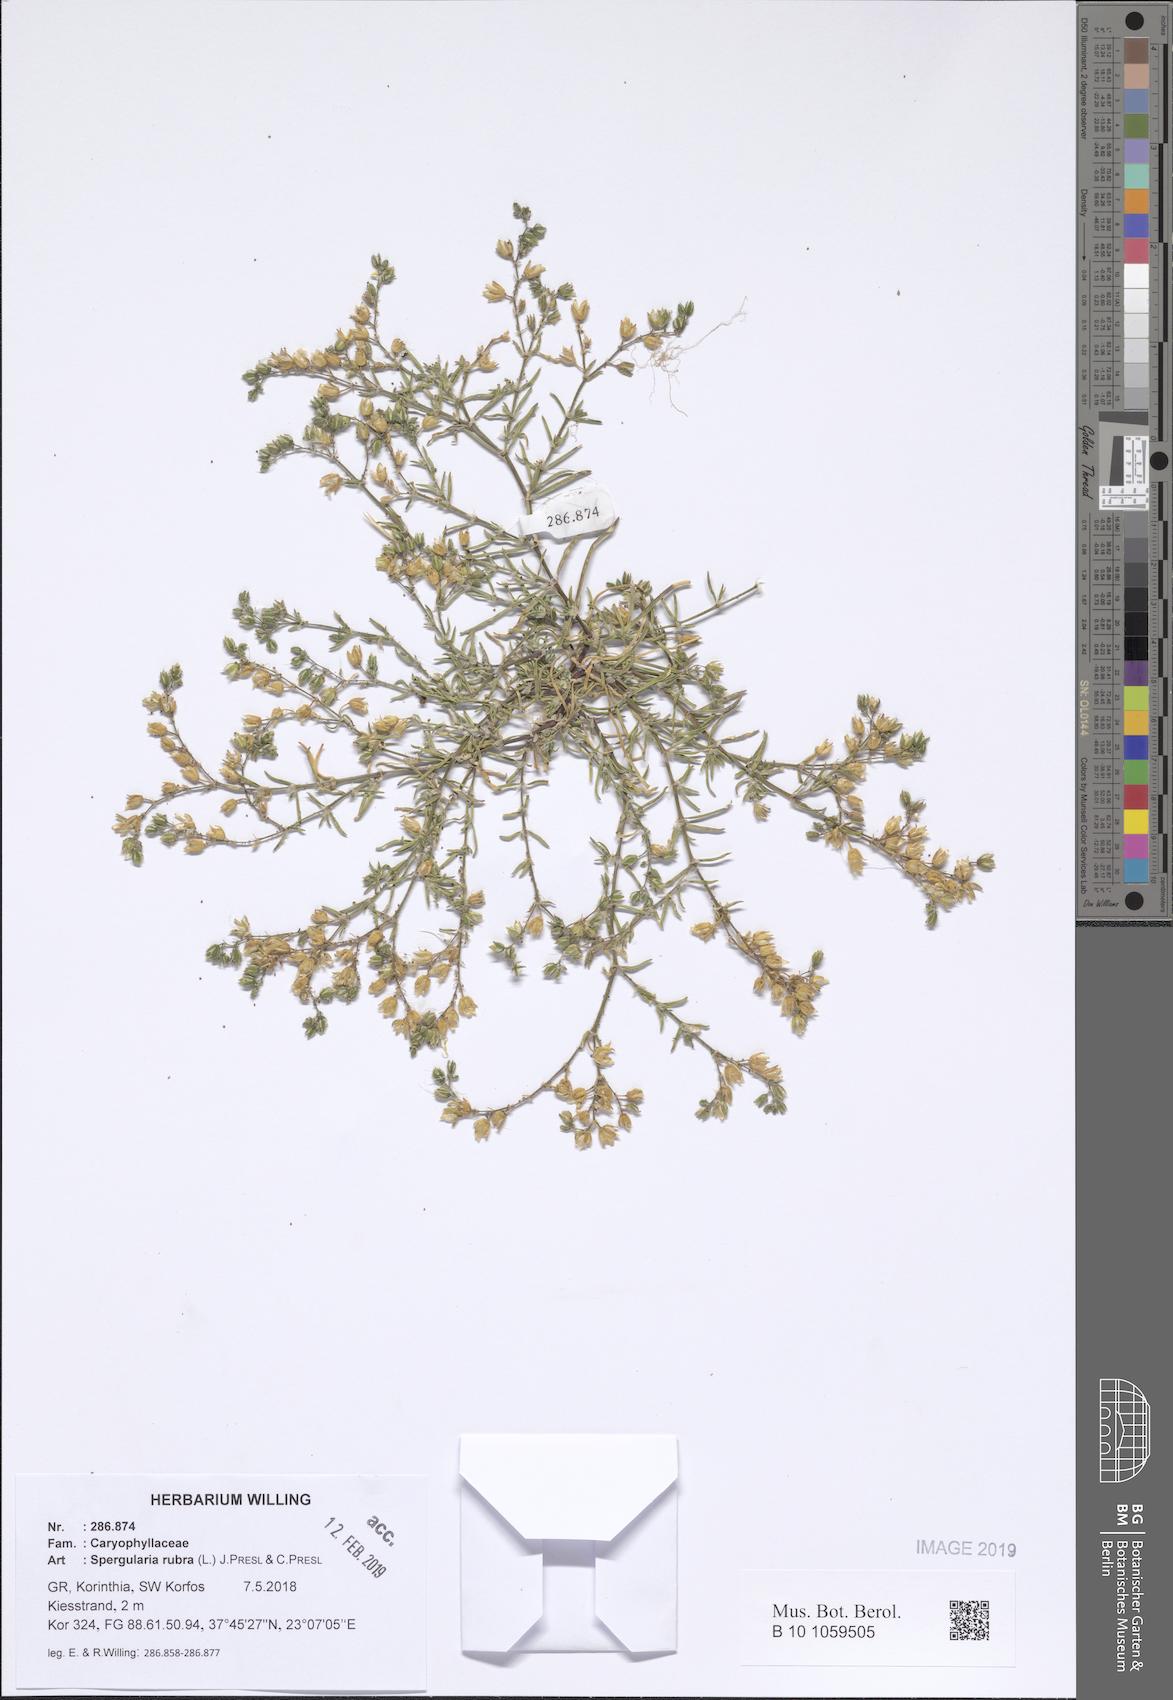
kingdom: Plantae
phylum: Tracheophyta
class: Magnoliopsida
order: Caryophyllales
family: Caryophyllaceae
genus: Spergularia
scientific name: Spergularia rubra
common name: Red sand-spurrey
